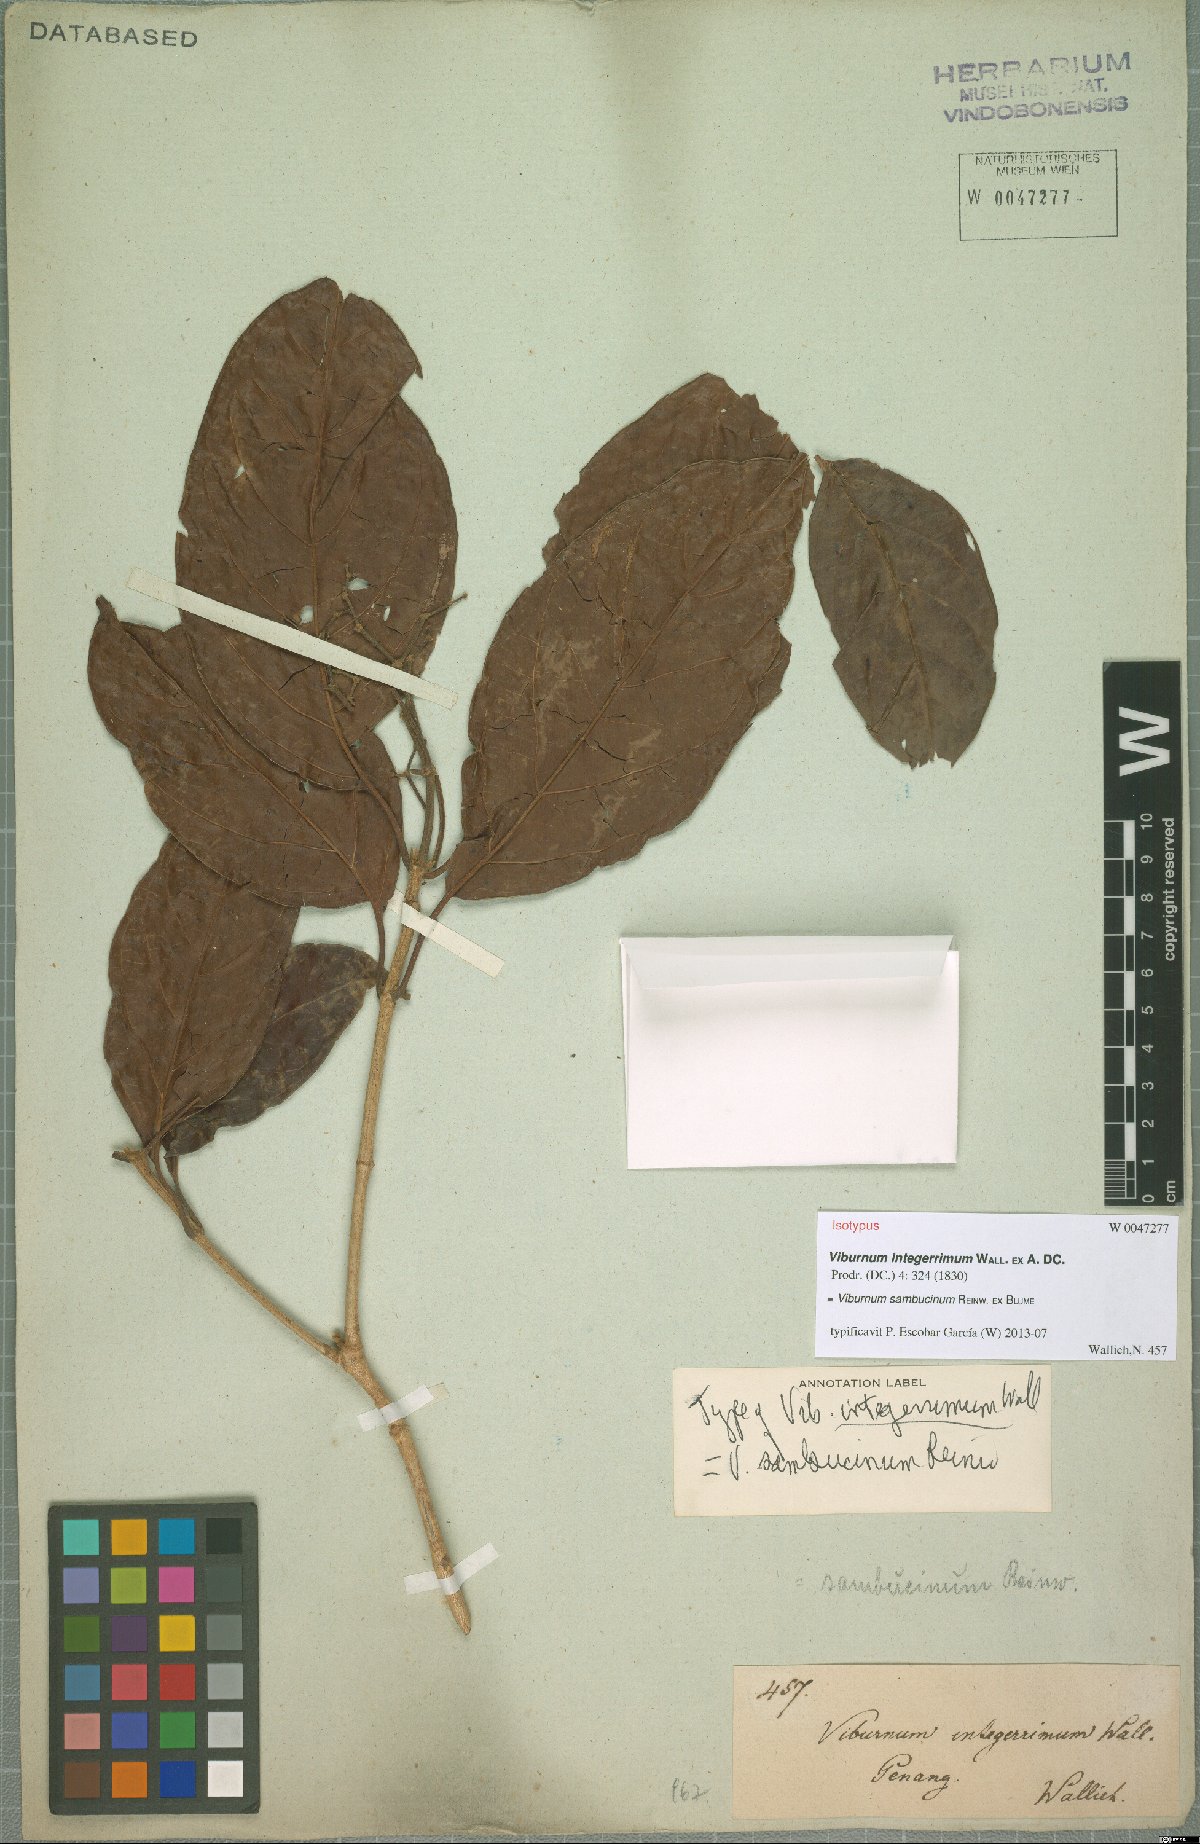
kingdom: Plantae
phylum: Tracheophyta
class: Magnoliopsida
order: Dipsacales
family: Viburnaceae
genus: Viburnum
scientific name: Viburnum sambucinum
